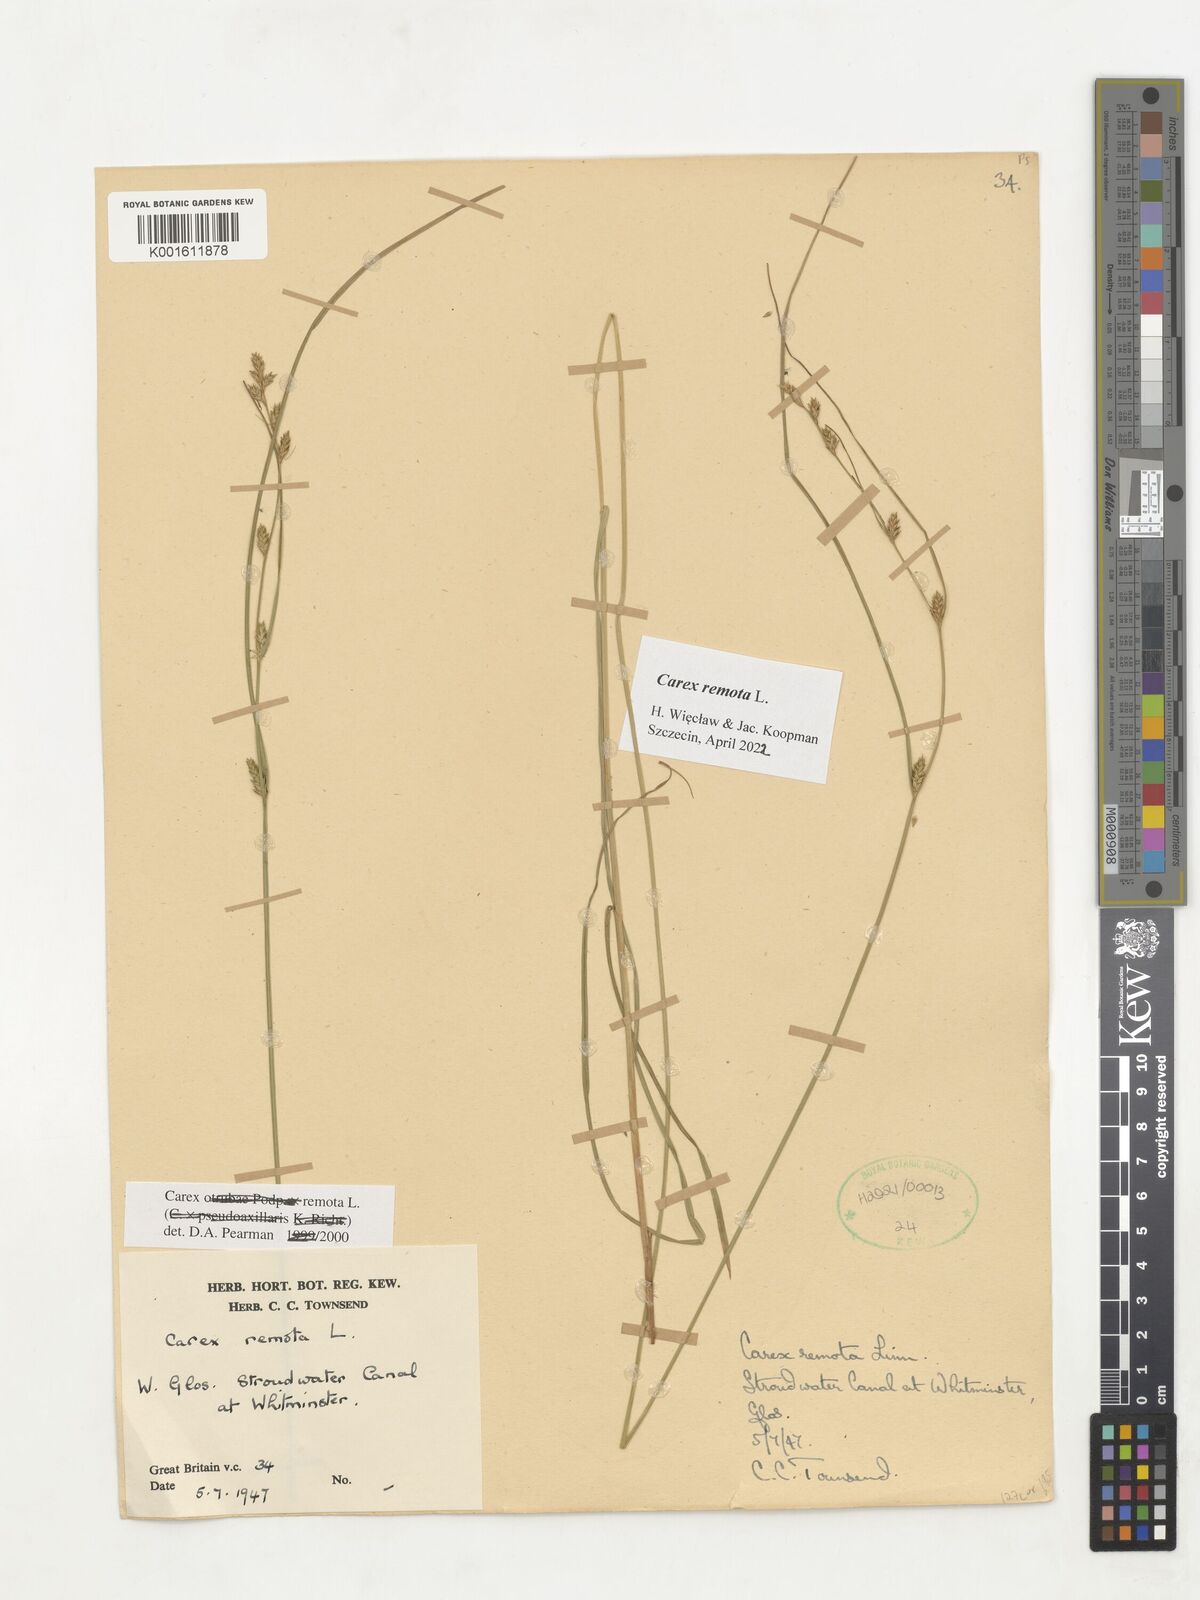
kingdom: Plantae
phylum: Tracheophyta
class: Liliopsida
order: Poales
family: Cyperaceae
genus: Carex
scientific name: Carex remota
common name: Remote sedge
